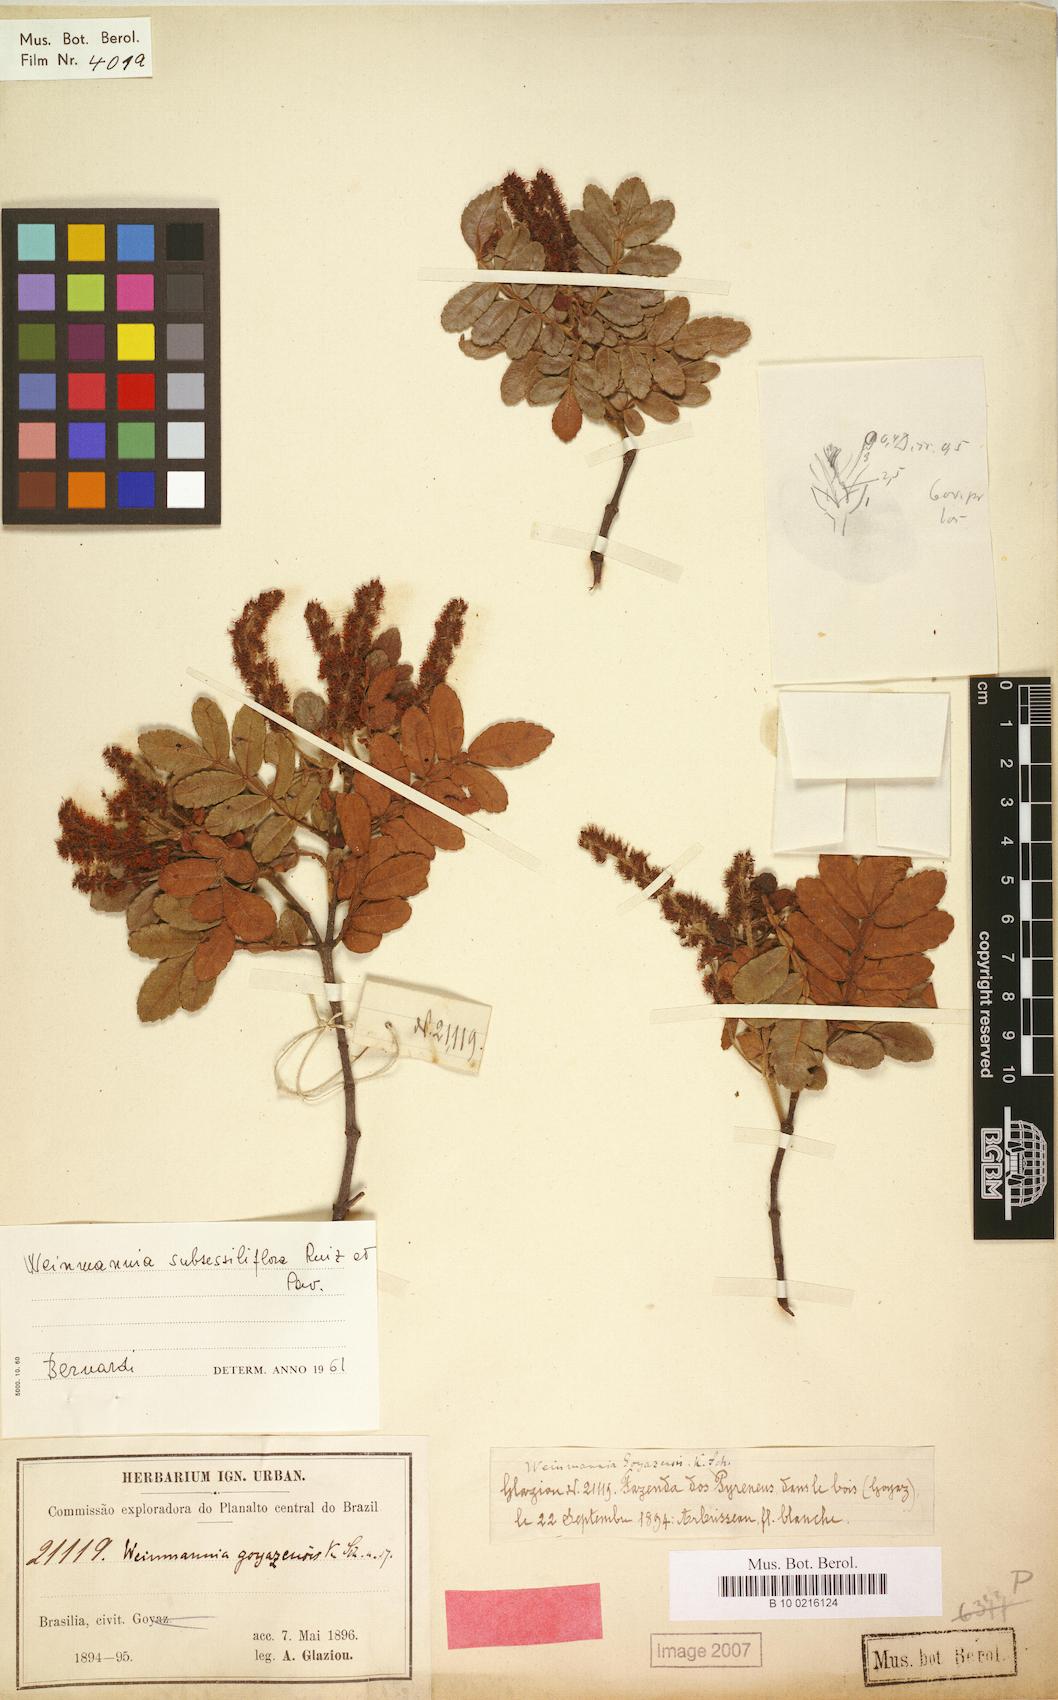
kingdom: Plantae
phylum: Tracheophyta
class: Magnoliopsida
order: Oxalidales
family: Cunoniaceae
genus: Weinmannia
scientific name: Weinmannia subsessiliflora
